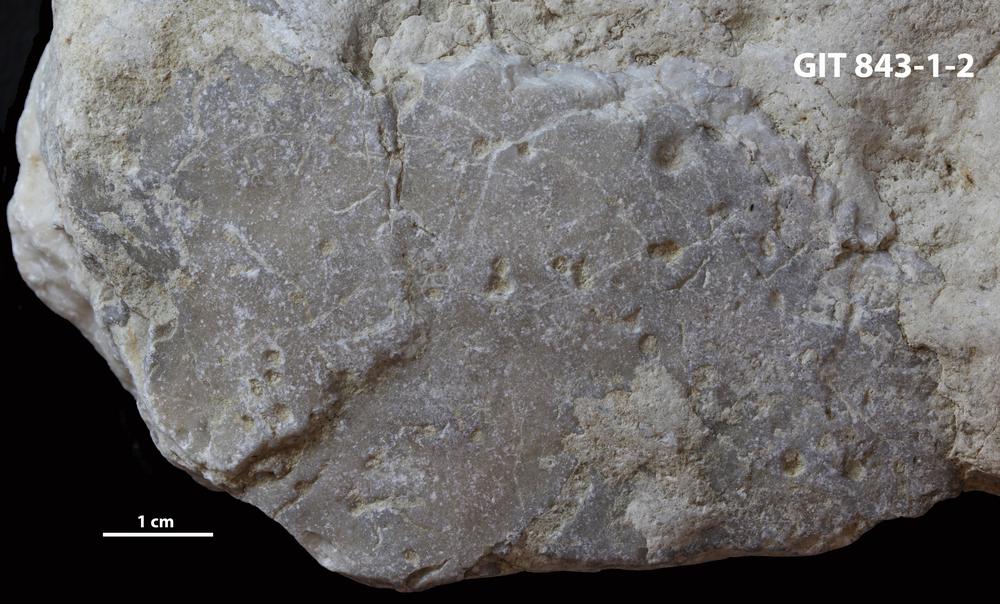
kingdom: Animalia
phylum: Porifera
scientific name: Porifera
